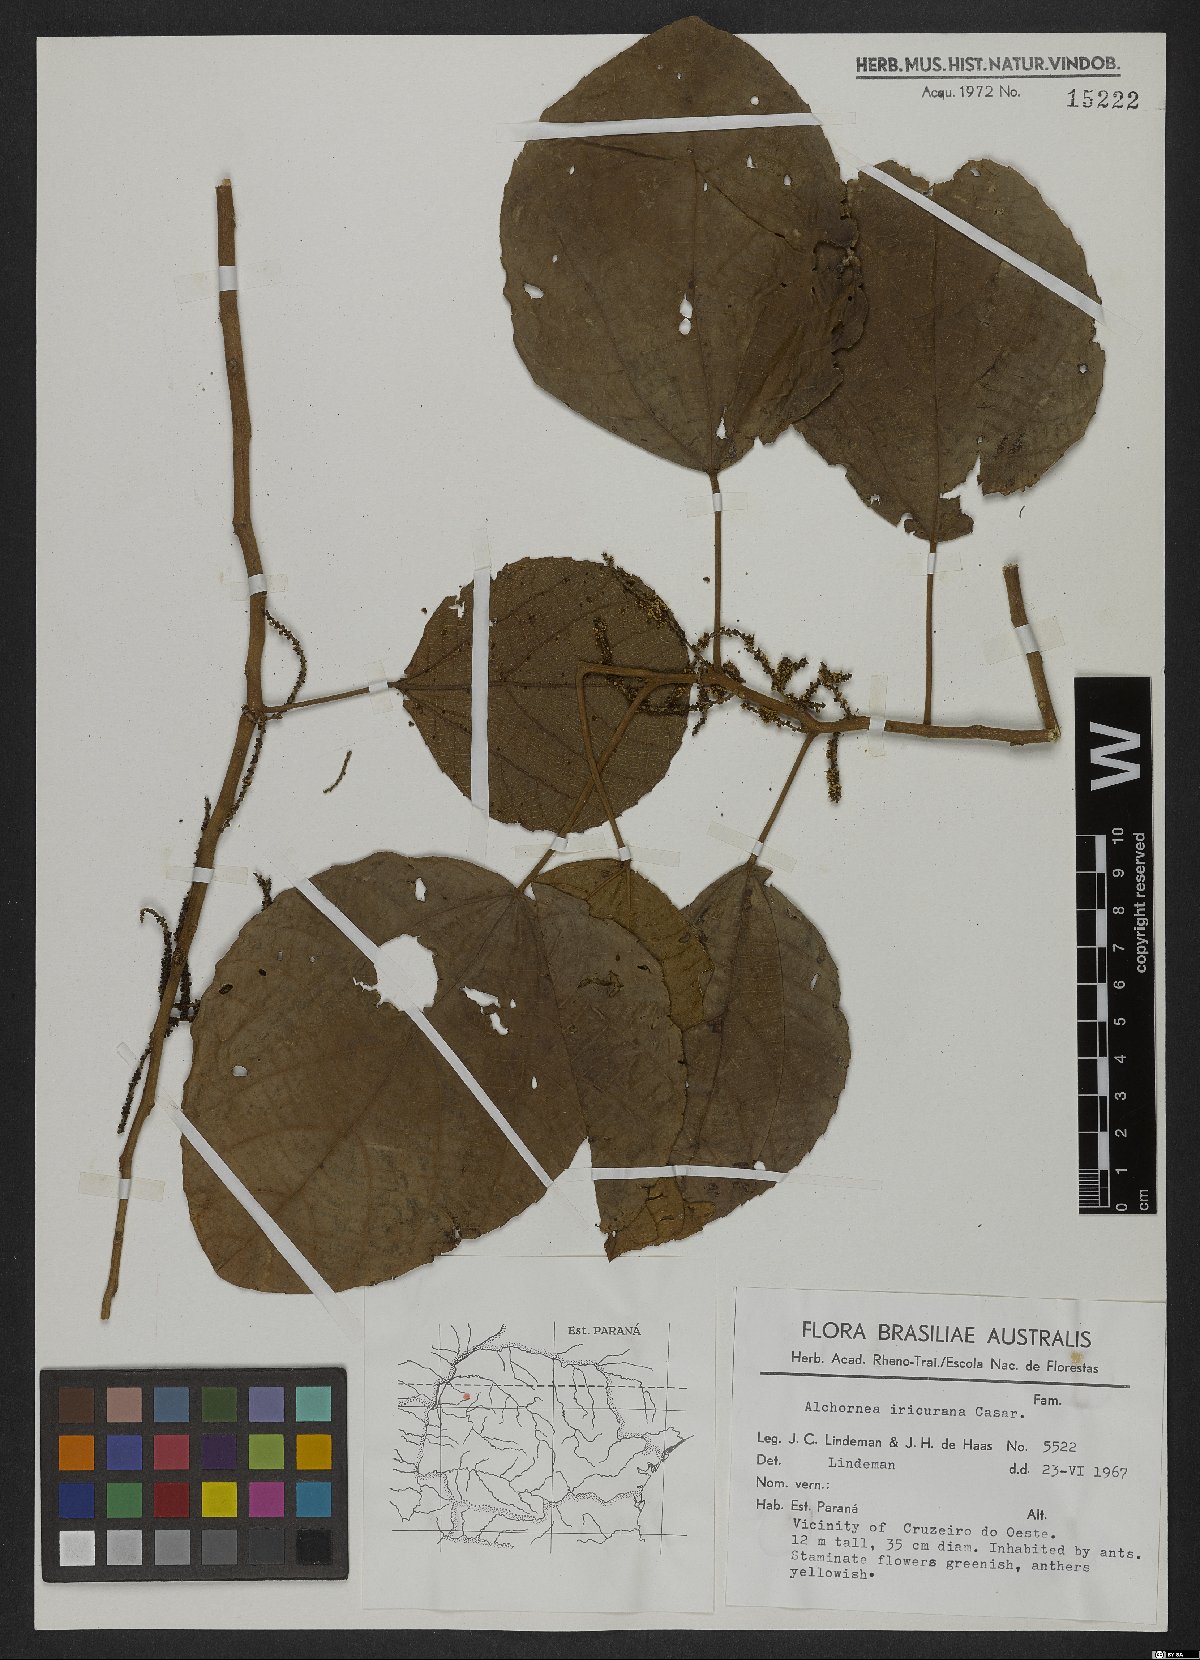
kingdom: Plantae
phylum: Tracheophyta
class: Magnoliopsida
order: Malpighiales
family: Euphorbiaceae
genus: Alchornea
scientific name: Alchornea glandulosa
